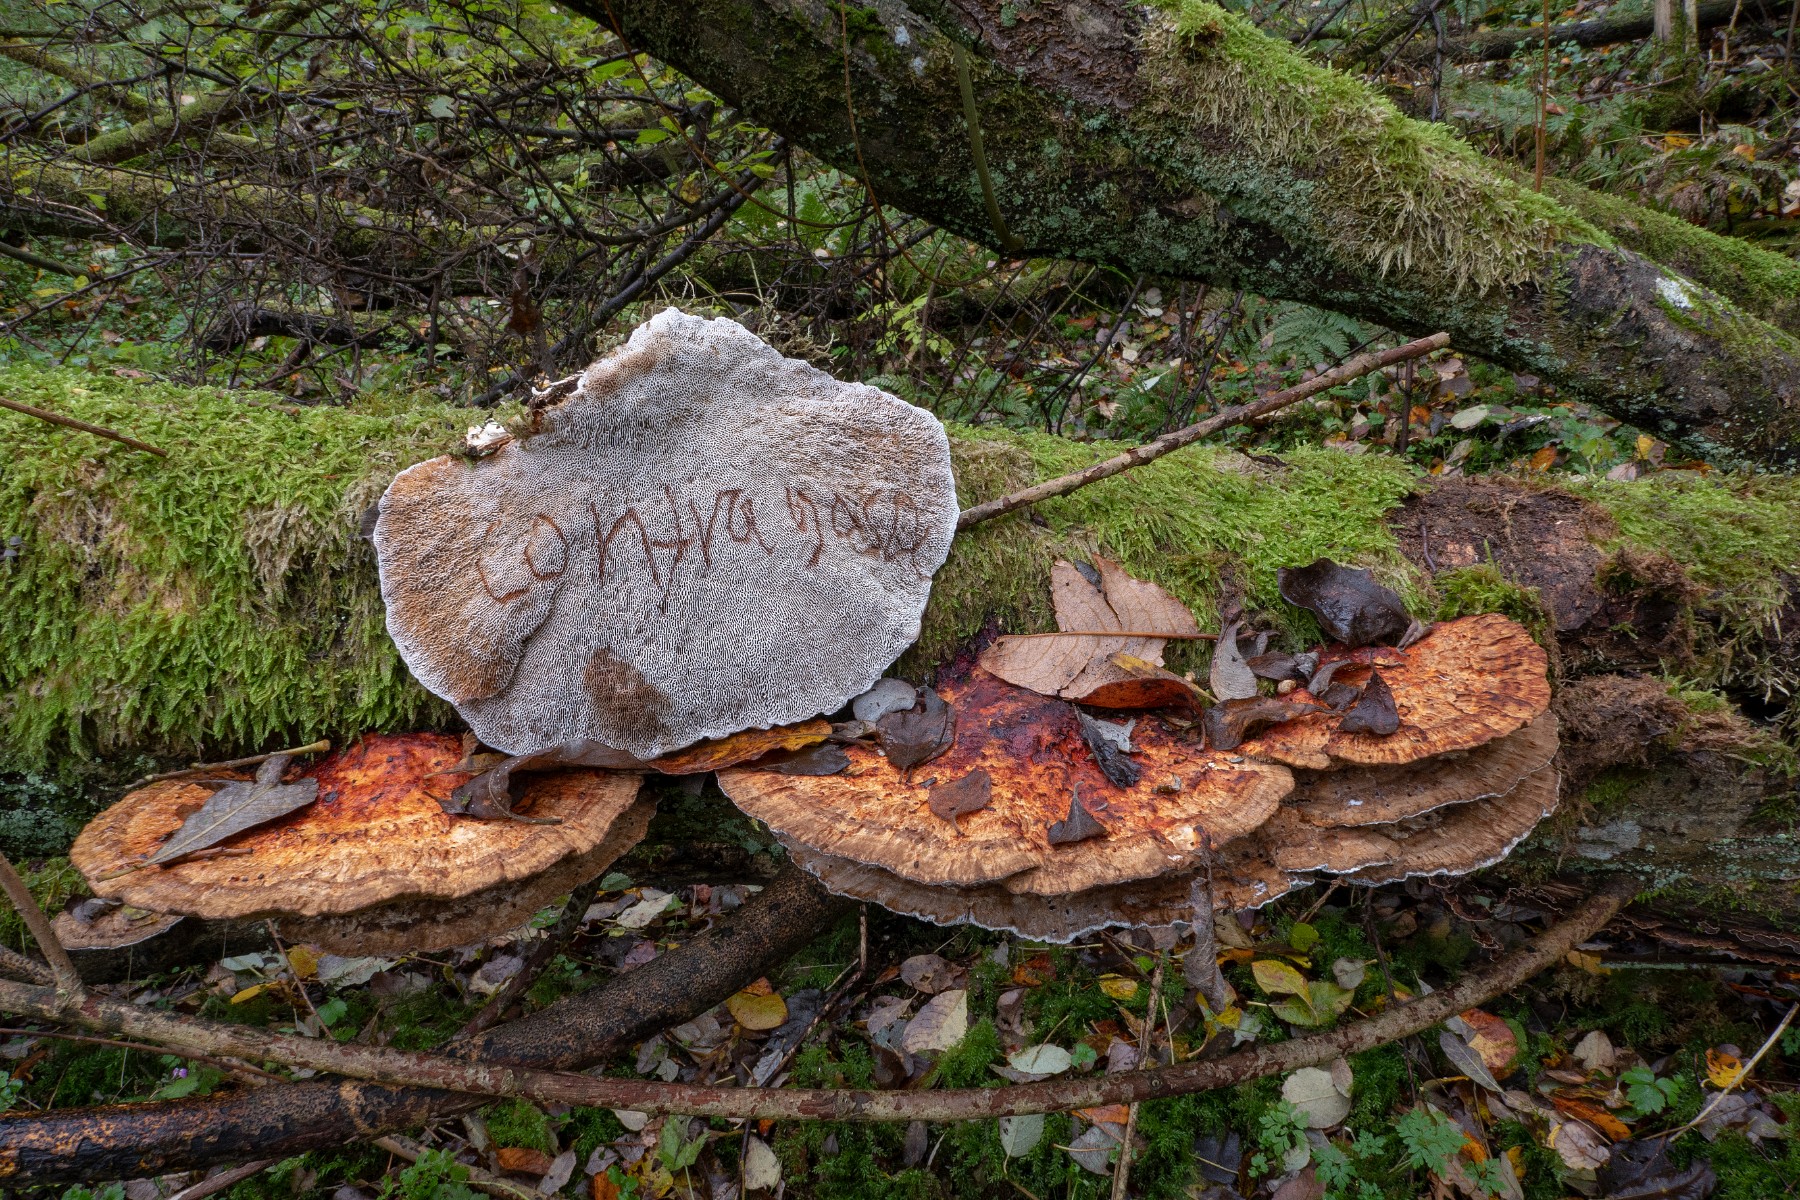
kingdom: Fungi
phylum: Basidiomycota
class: Agaricomycetes
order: Polyporales
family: Polyporaceae
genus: Daedaleopsis
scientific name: Daedaleopsis confragosa
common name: rødmende læderporesvamp
